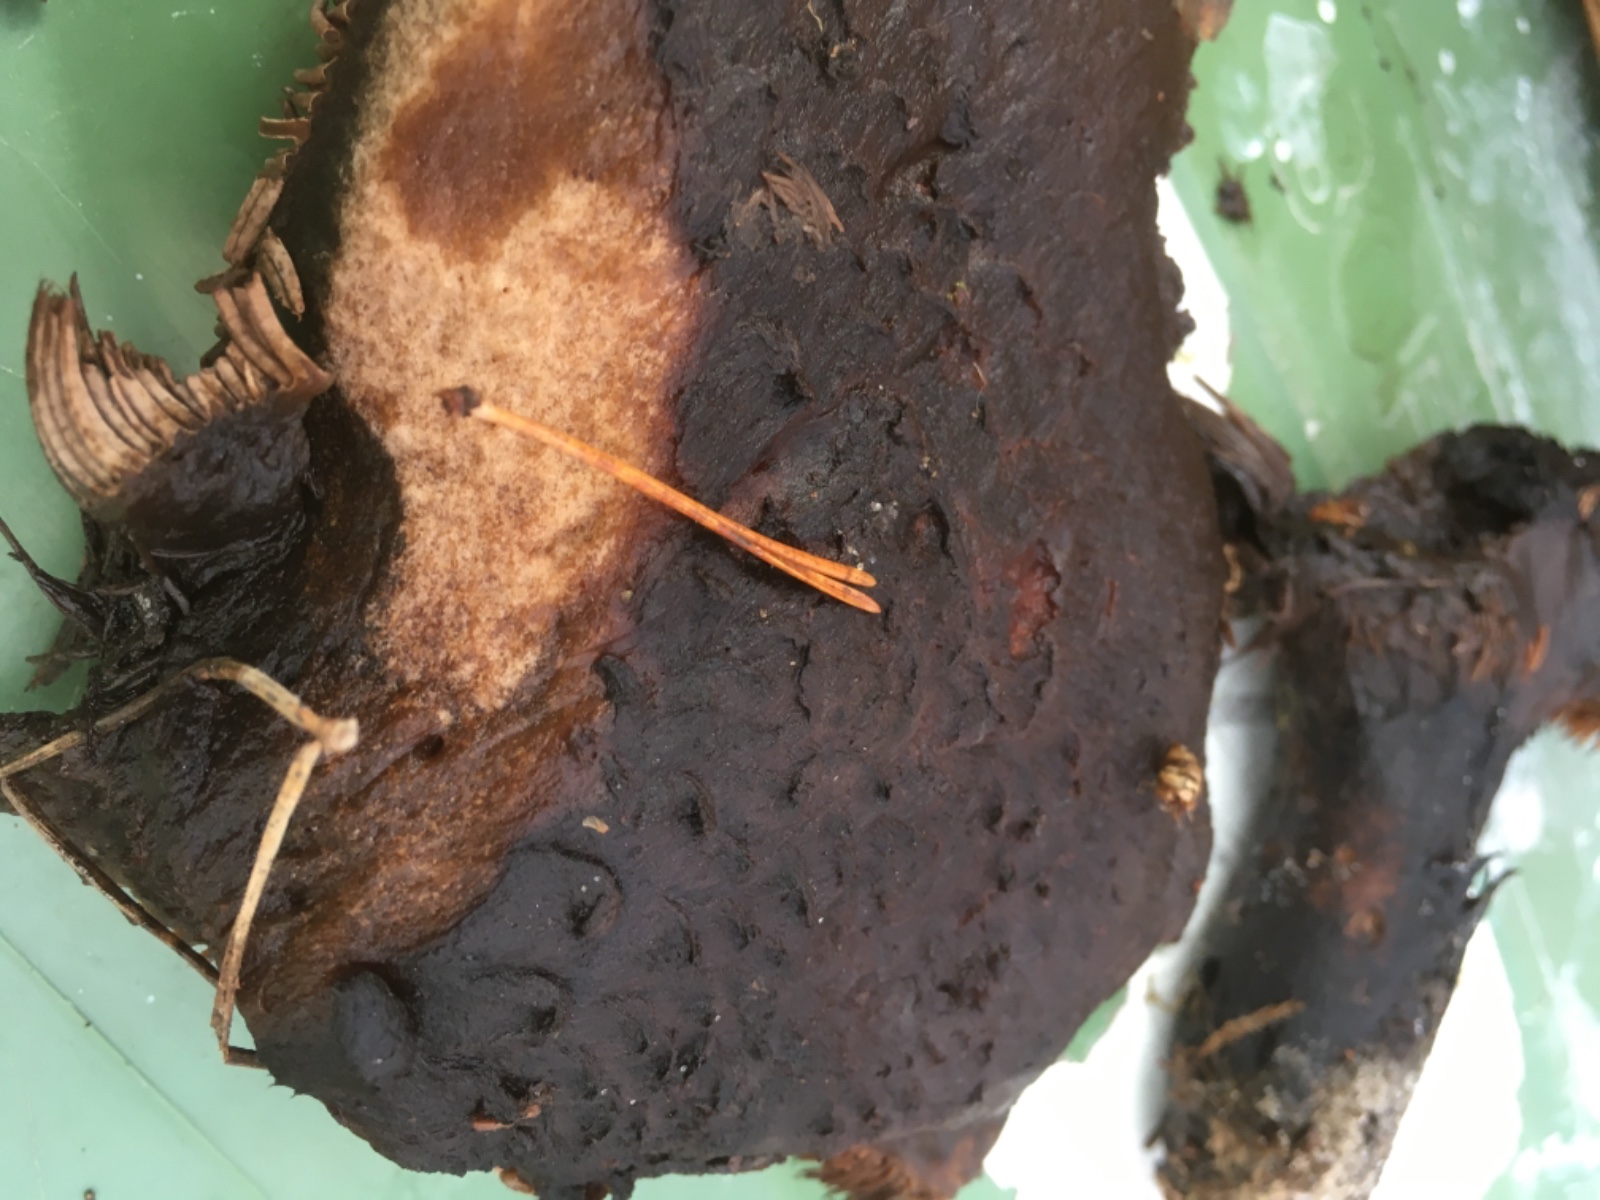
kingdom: Fungi
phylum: Basidiomycota
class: Agaricomycetes
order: Thelephorales
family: Bankeraceae
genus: Sarcodon
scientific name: Sarcodon squamosus
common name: småskællet kødpigsvamp
